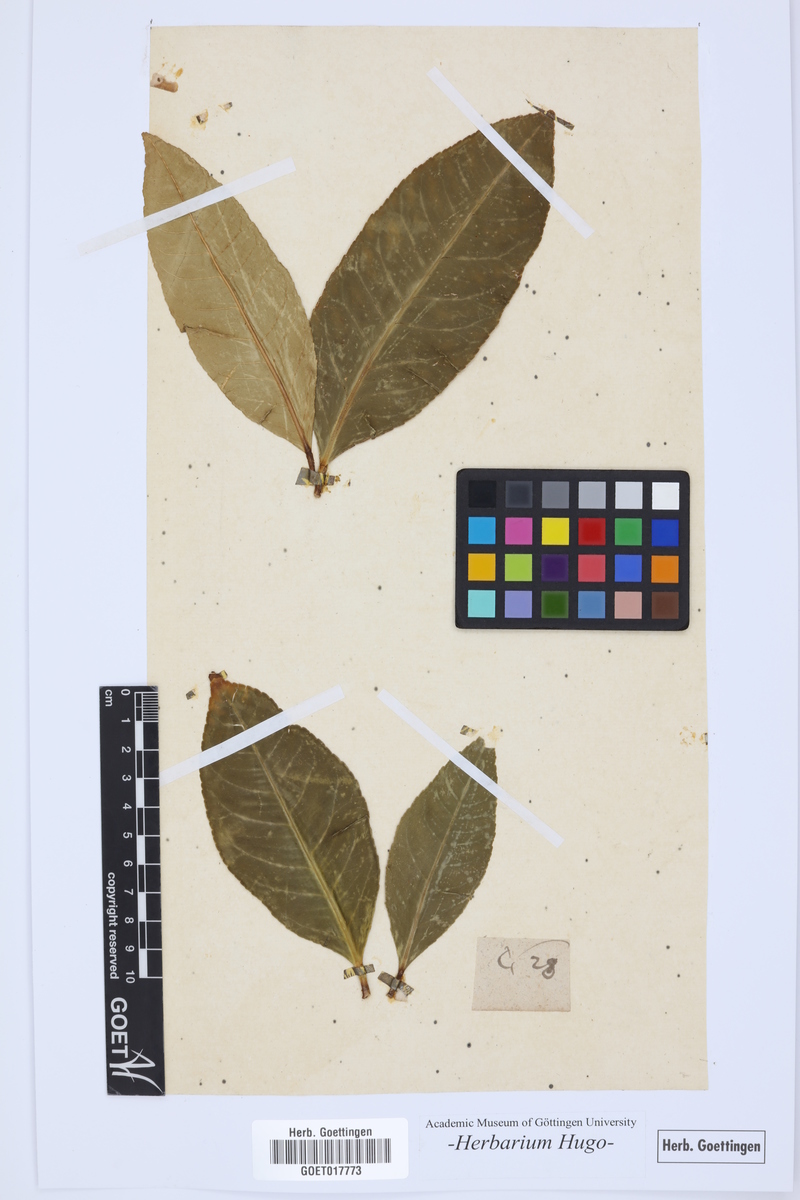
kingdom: Plantae
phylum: Tracheophyta
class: Magnoliopsida
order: Sapindales
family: Rutaceae
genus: Citrus
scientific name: Citrus
